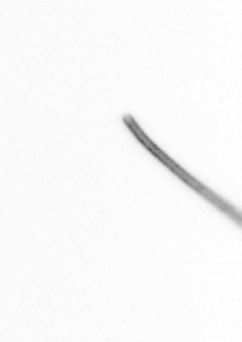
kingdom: Chromista
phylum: Ochrophyta
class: Bacillariophyceae
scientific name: Bacillariophyceae
